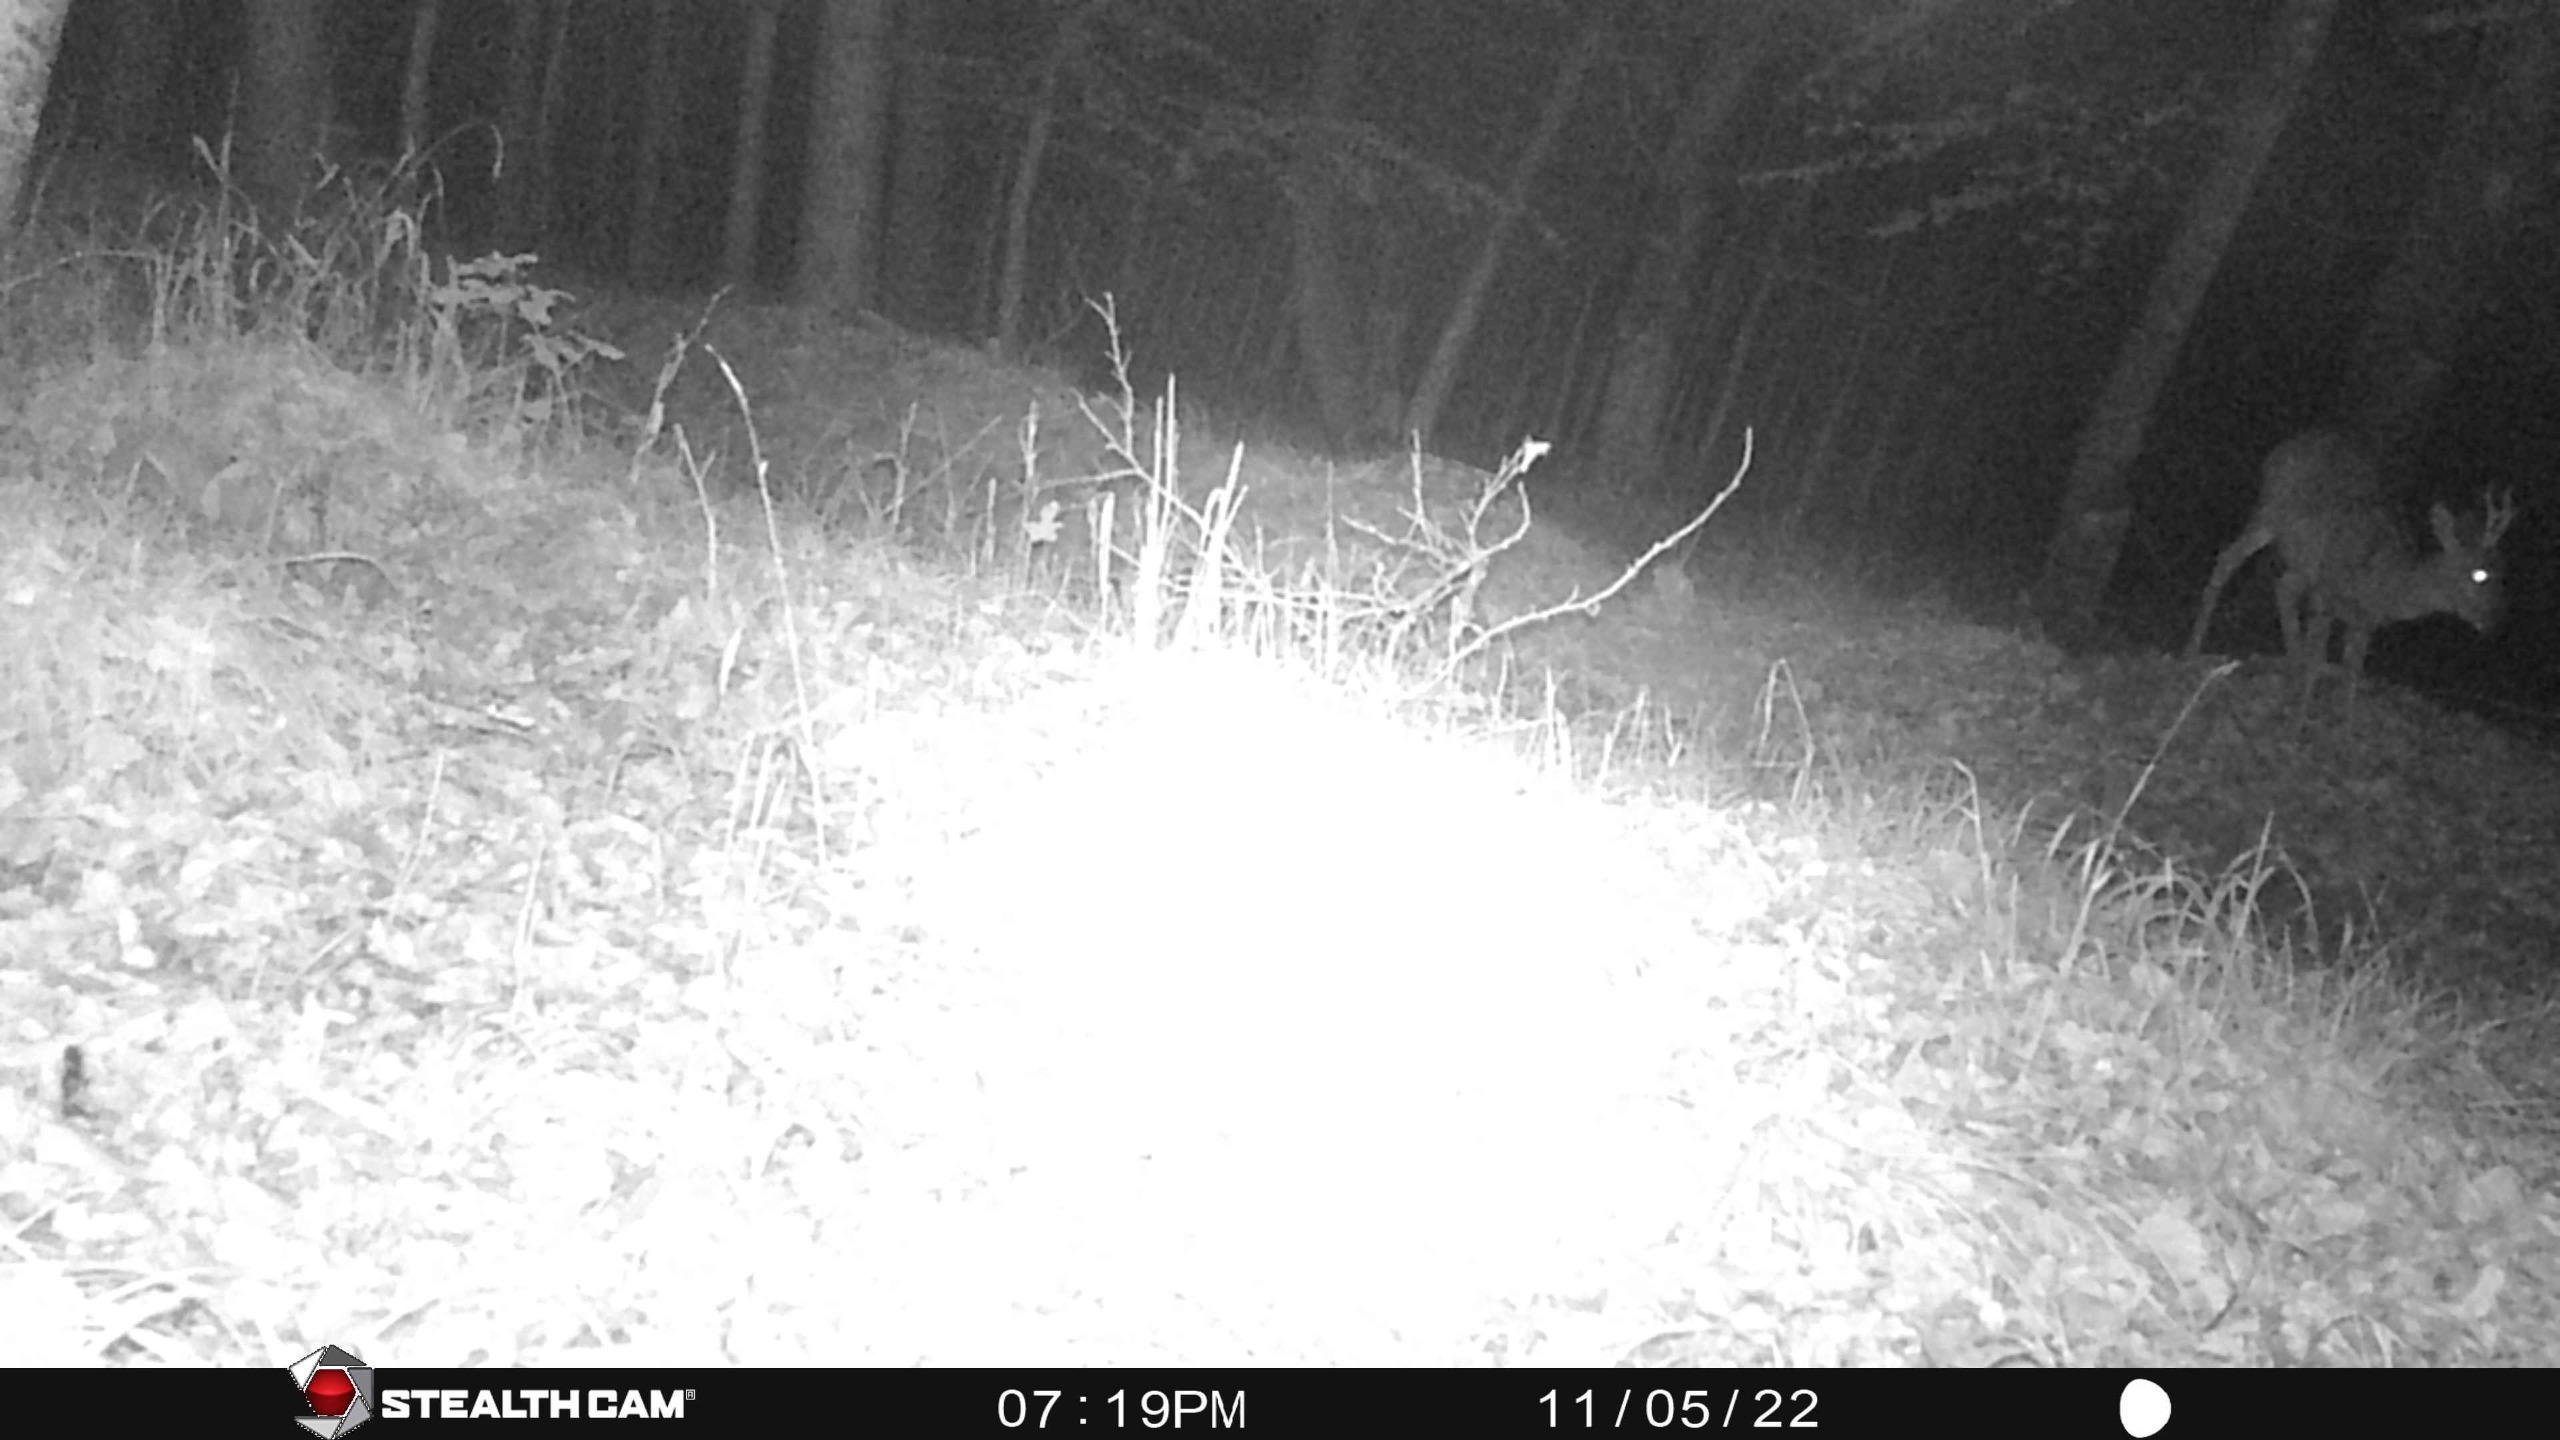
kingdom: Animalia
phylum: Chordata
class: Mammalia
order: Artiodactyla
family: Cervidae
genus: Capreolus
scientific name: Capreolus capreolus
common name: Rådyr
